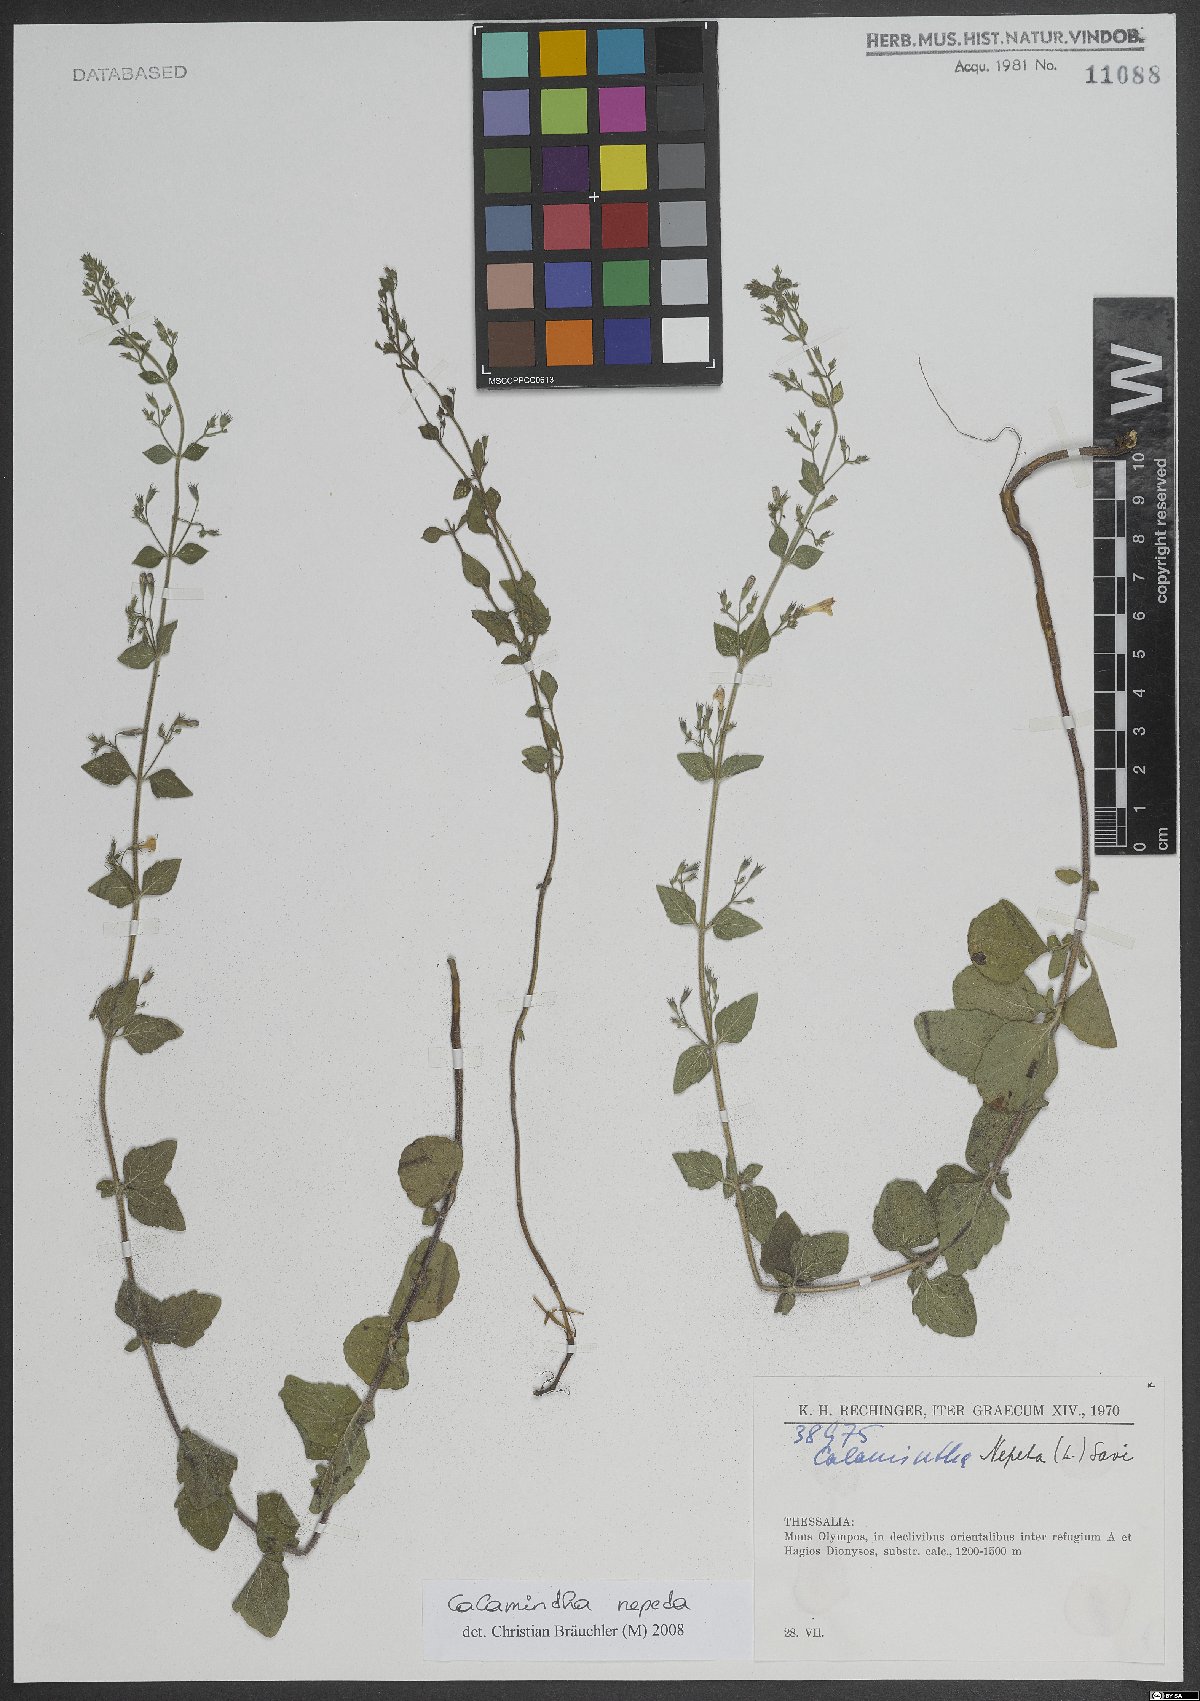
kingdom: Plantae
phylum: Tracheophyta
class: Magnoliopsida
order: Lamiales
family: Lamiaceae
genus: Clinopodium
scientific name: Clinopodium nepeta
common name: Lesser calamint
